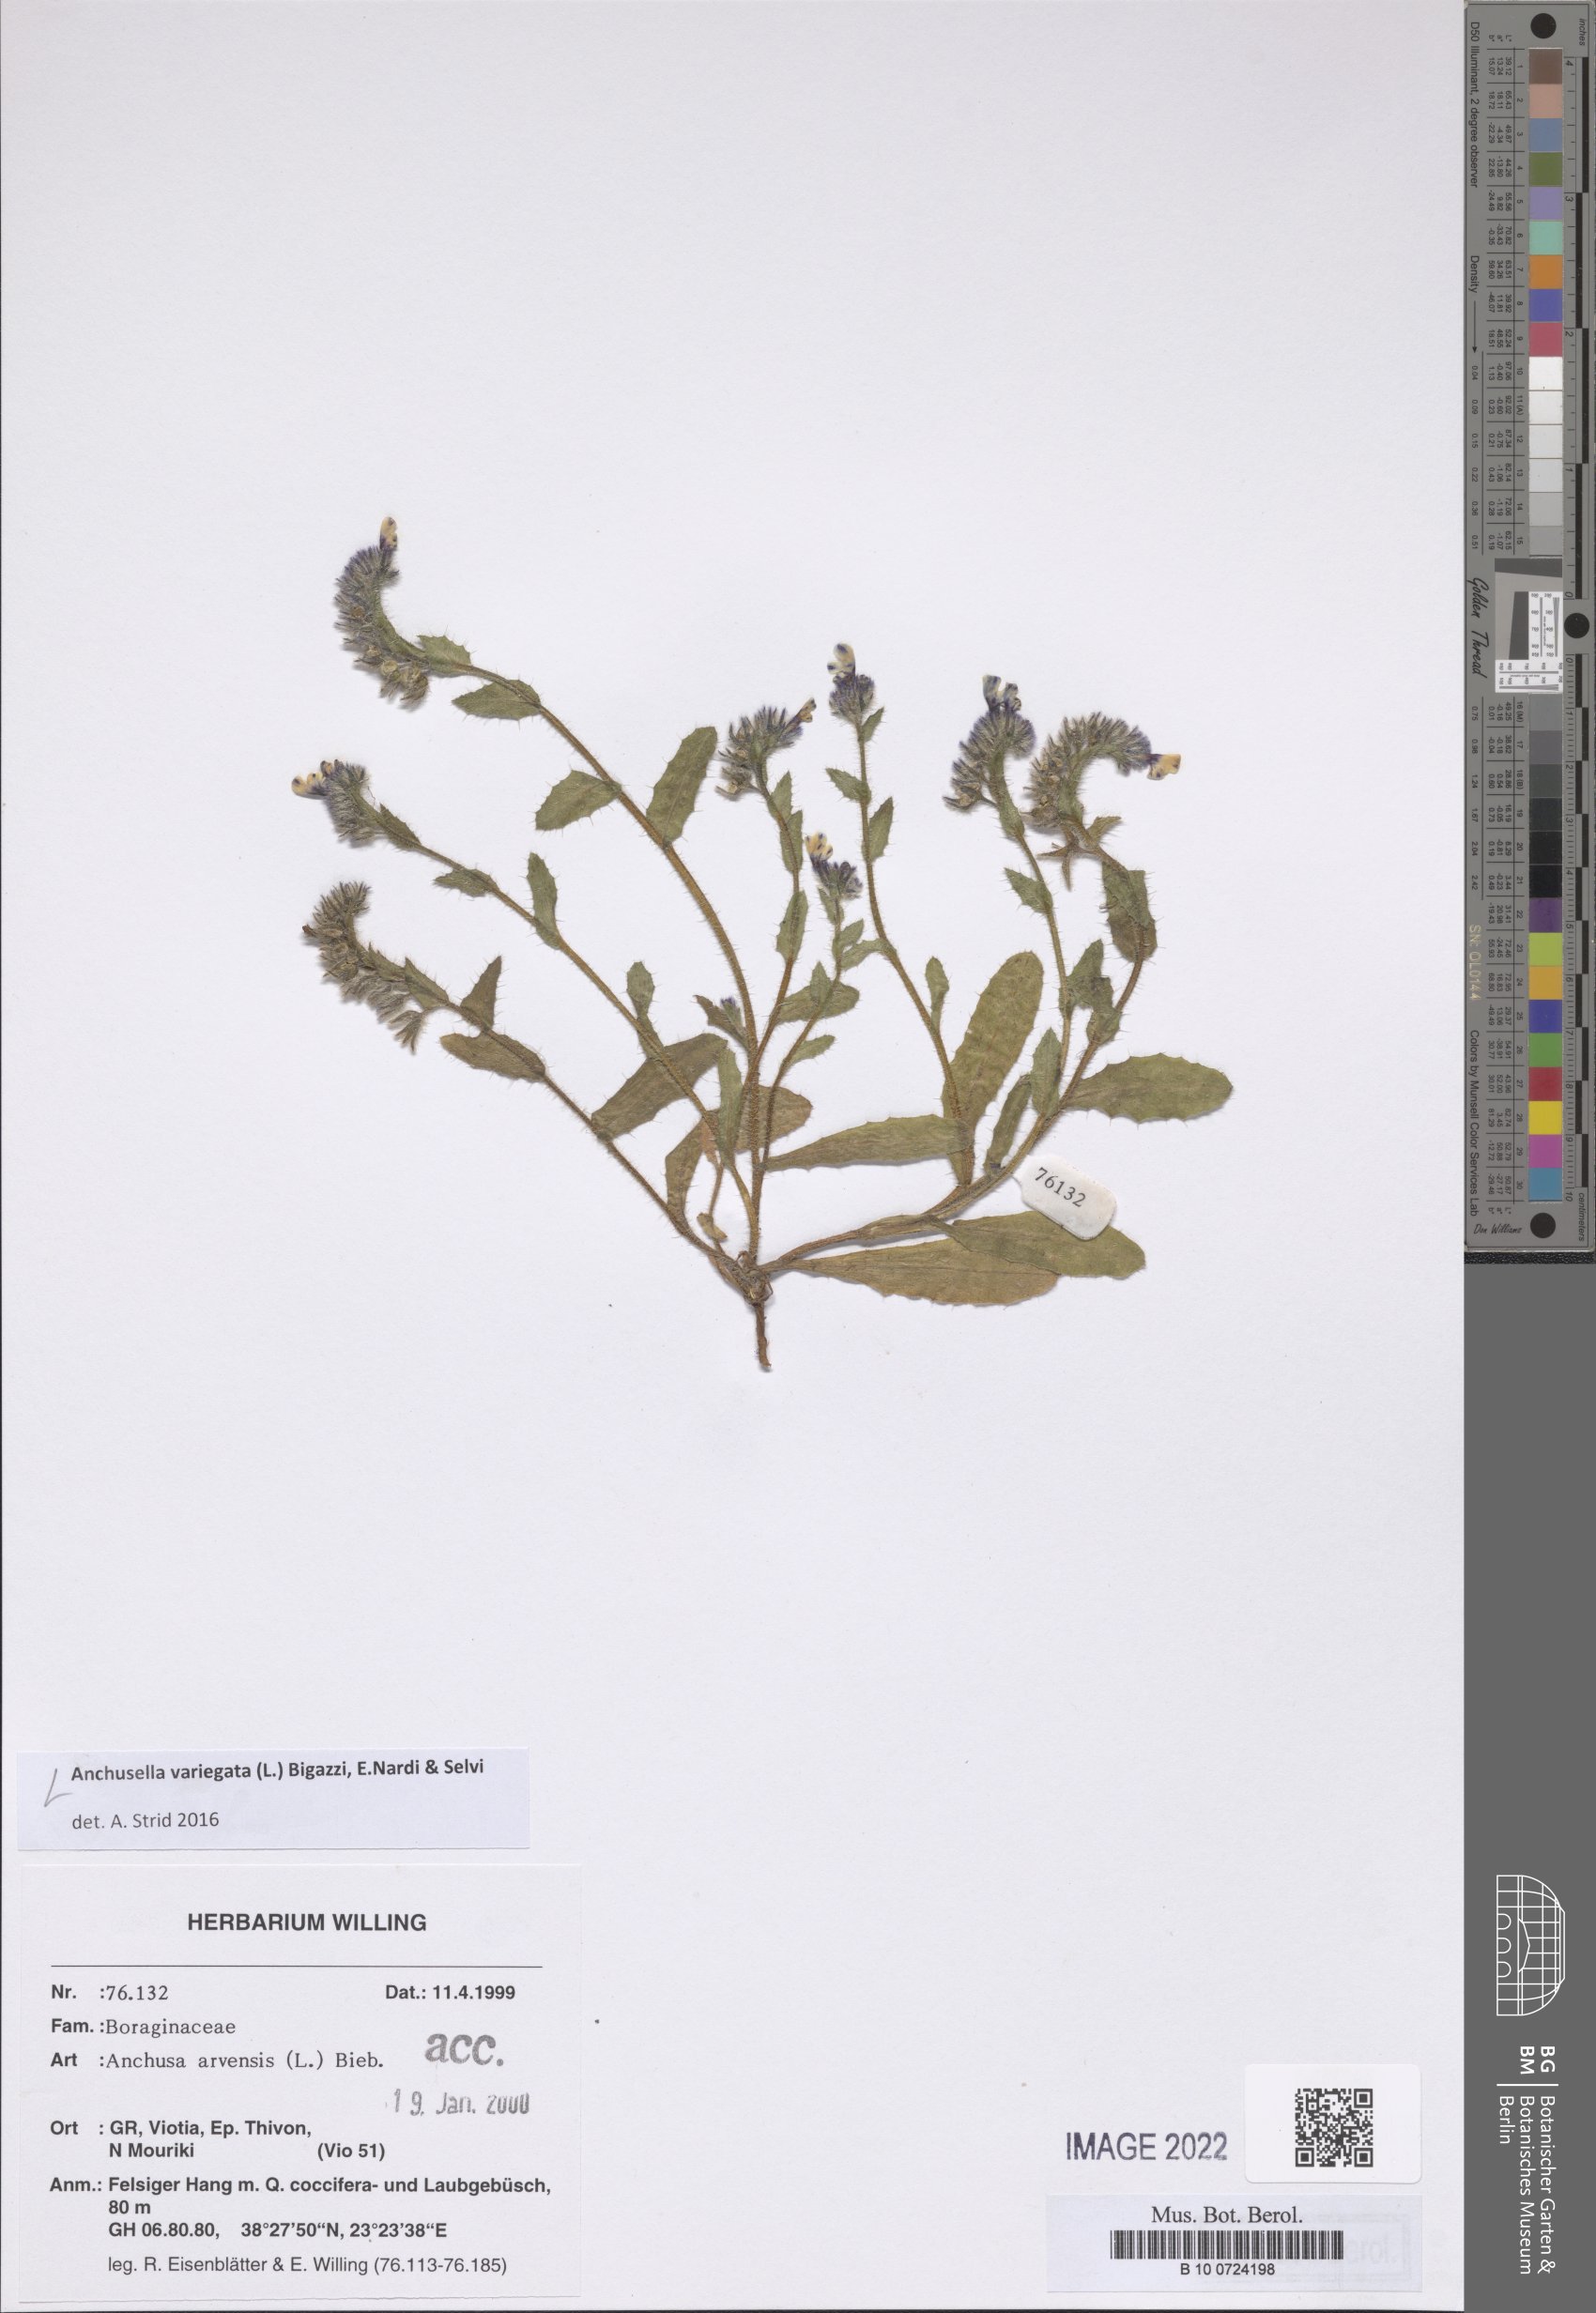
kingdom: Plantae
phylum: Tracheophyta
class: Magnoliopsida
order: Boraginales
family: Boraginaceae
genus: Anchusella
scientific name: Anchusella variegata
